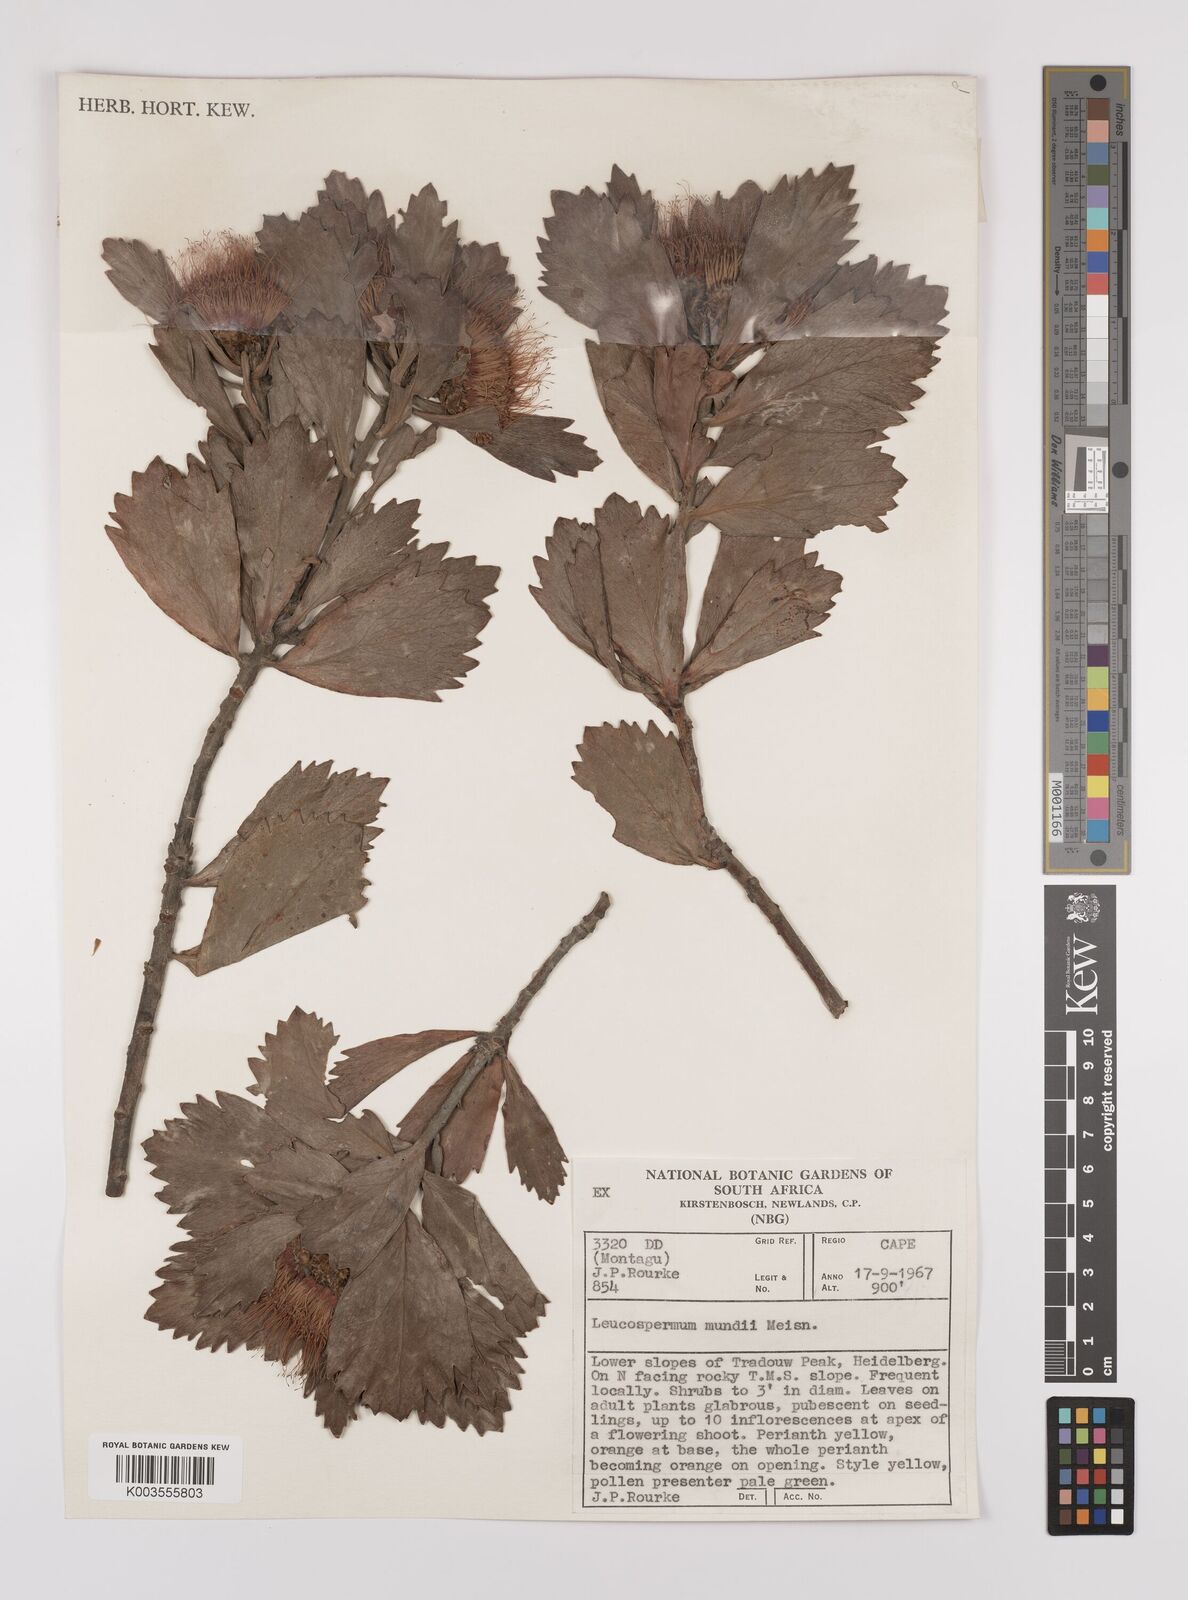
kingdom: Plantae
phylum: Tracheophyta
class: Magnoliopsida
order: Proteales
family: Proteaceae
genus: Leucospermum
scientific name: Leucospermum mundii
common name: Langeberg pincushion
